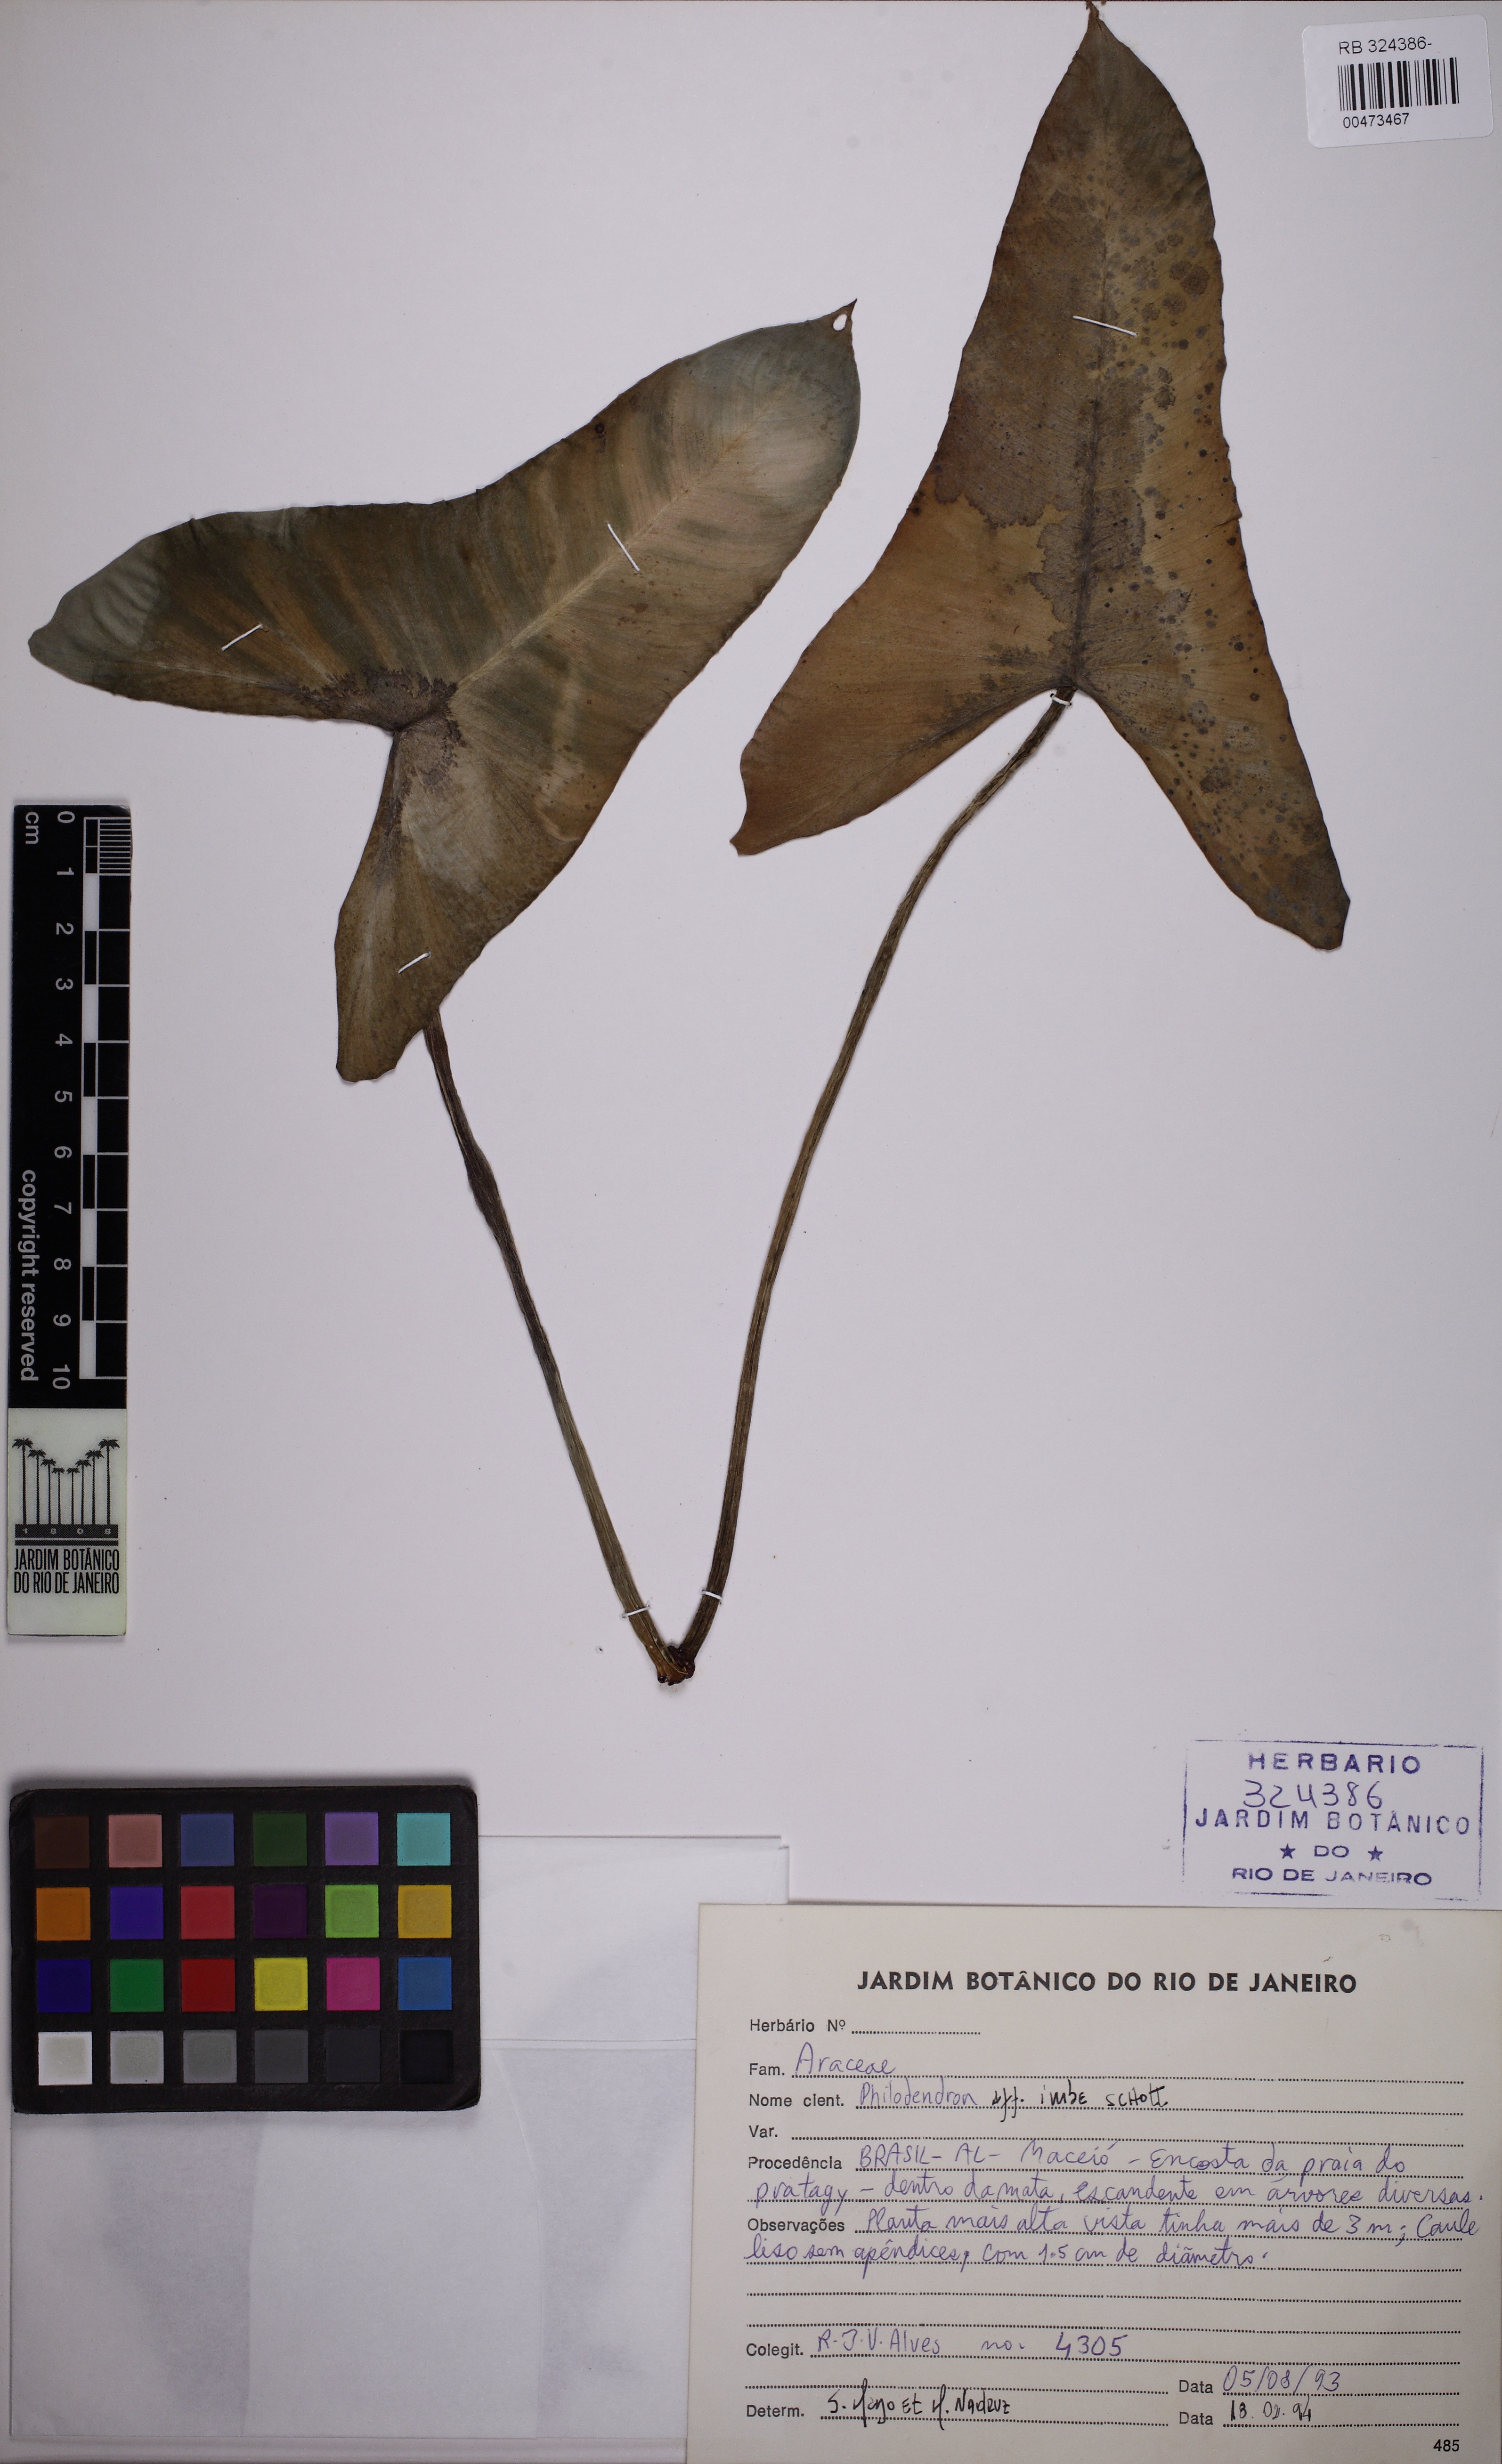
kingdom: Plantae
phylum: Tracheophyta
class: Liliopsida
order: Alismatales
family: Araceae
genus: Philodendron
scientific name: Philodendron imbe
